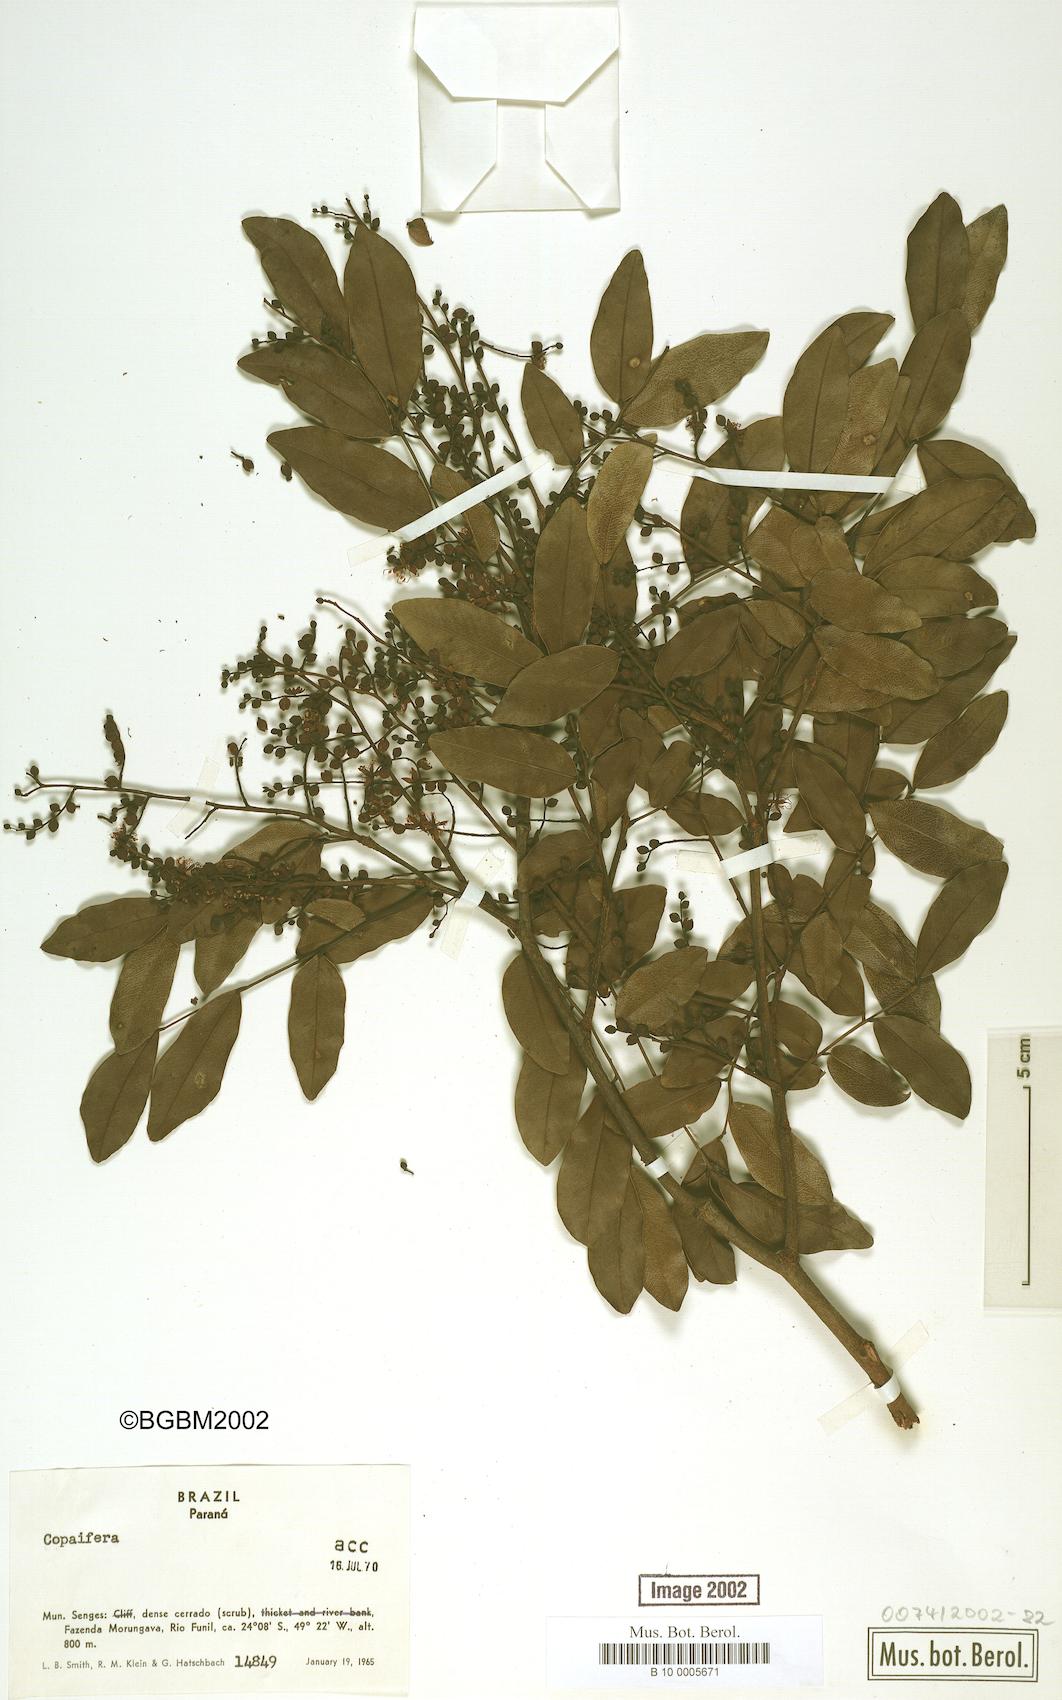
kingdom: Plantae
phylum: Tracheophyta
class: Magnoliopsida
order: Fabales
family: Fabaceae
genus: Copaifera
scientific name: Copaifera langsdorffii
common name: Brazilian diesel tree
